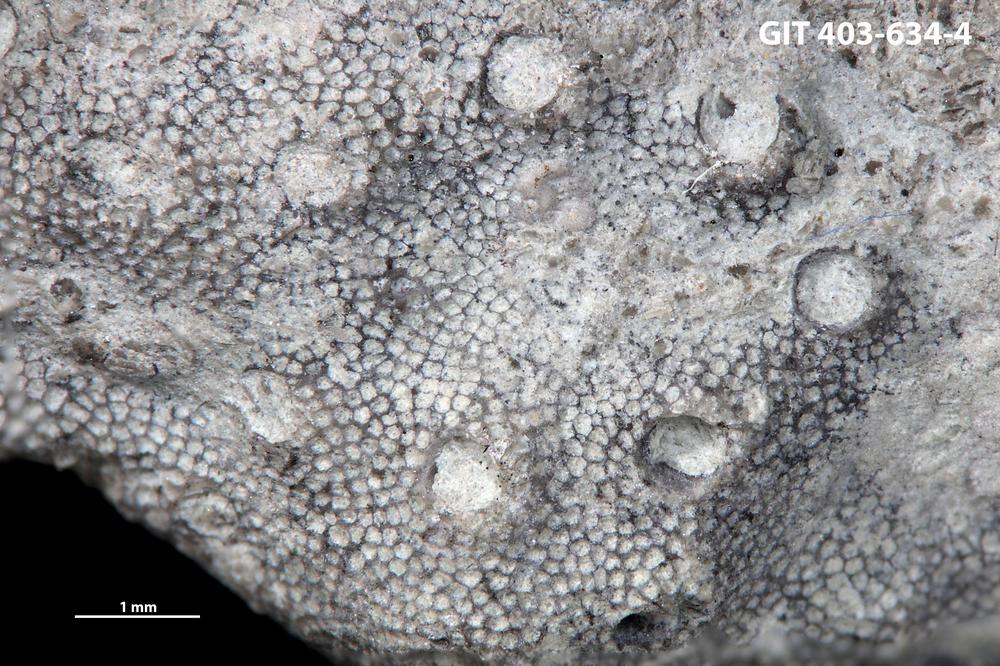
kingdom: Animalia
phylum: Bryozoa
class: Stenolaemata
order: Cystoporida
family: Fistuliporidae
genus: Fistulipora
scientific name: Fistulipora przhidolensis
